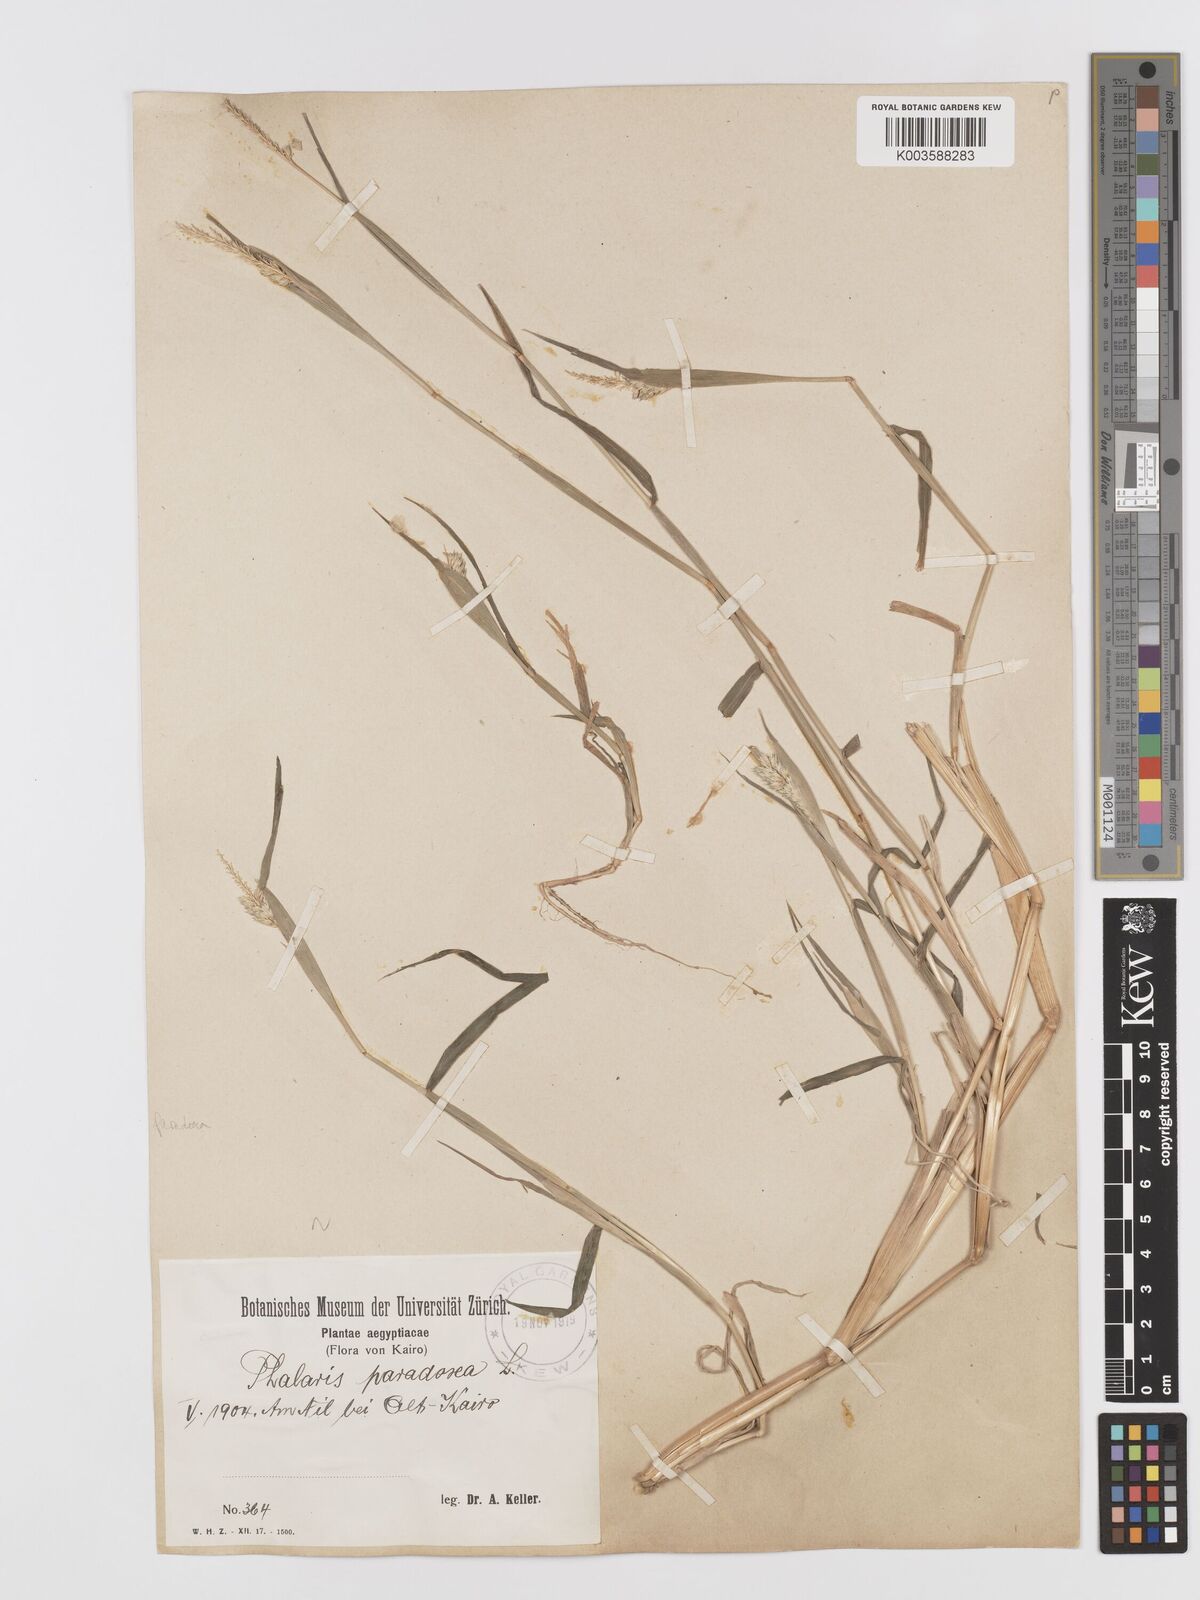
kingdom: Plantae
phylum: Tracheophyta
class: Liliopsida
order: Poales
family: Poaceae
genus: Phalaris
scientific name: Phalaris paradoxa
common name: Awned canary-grass
